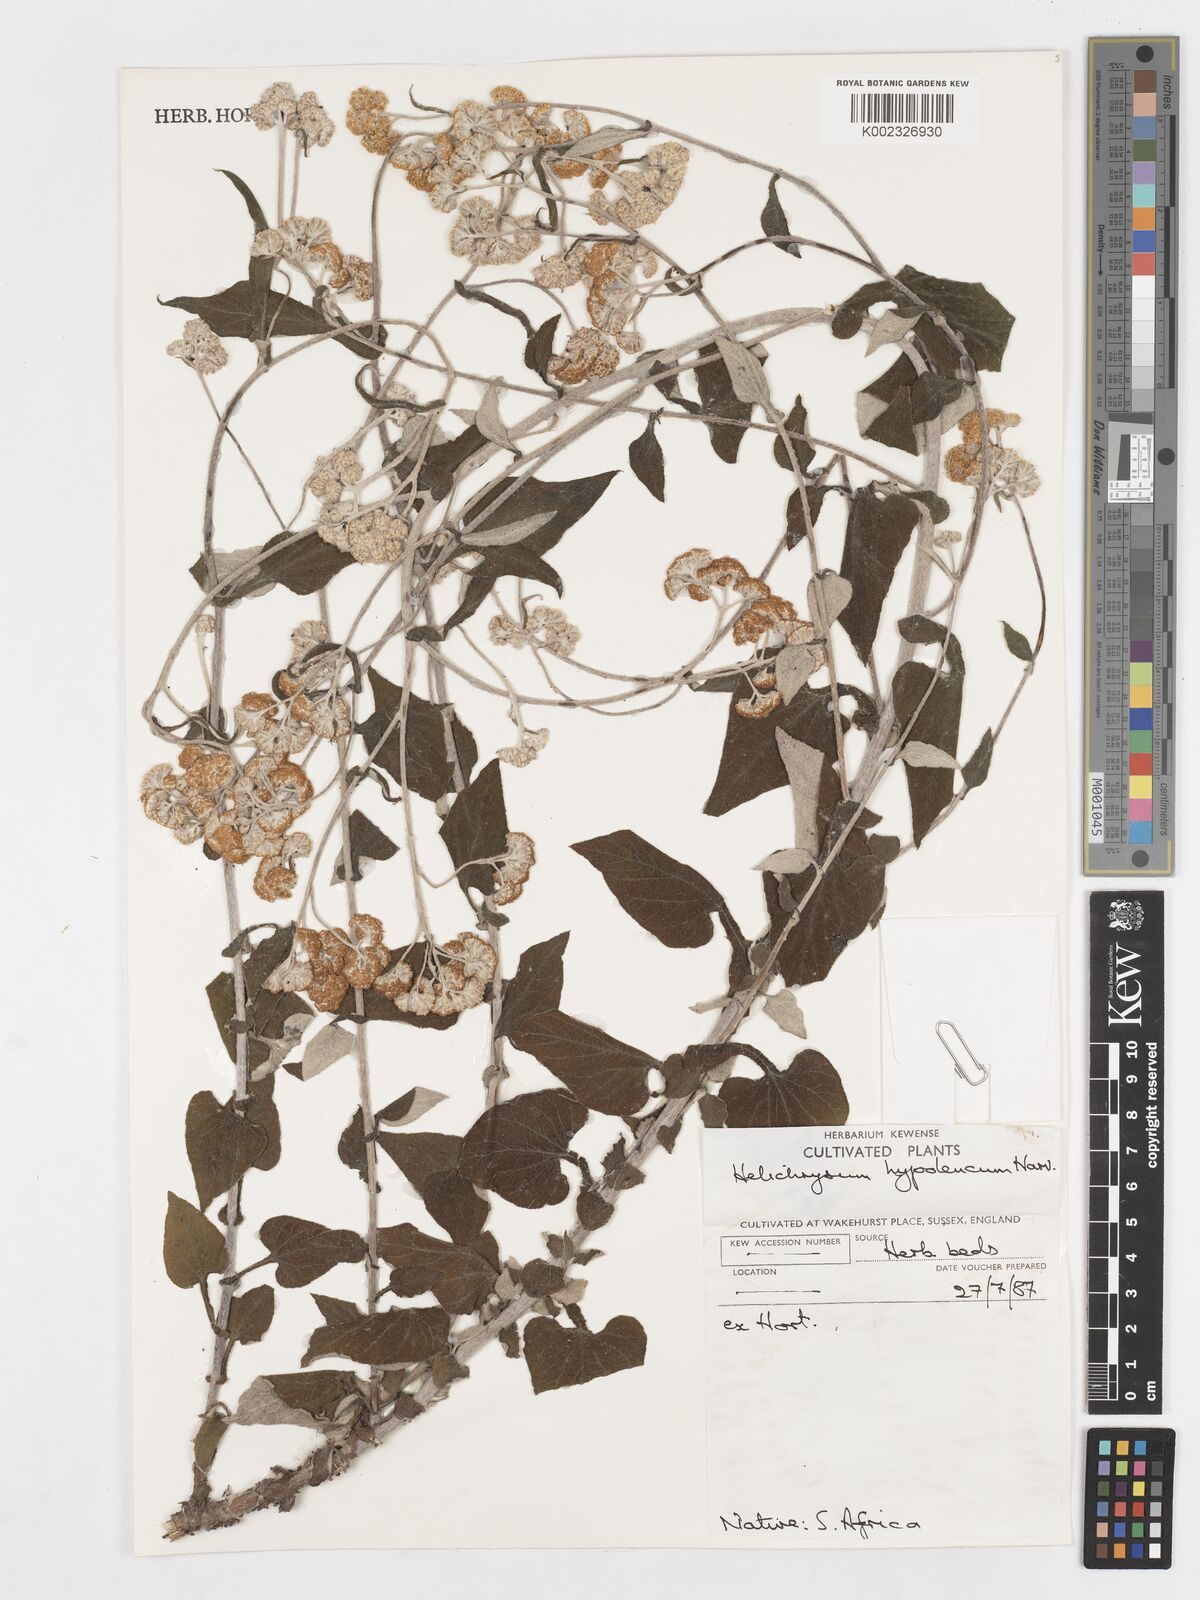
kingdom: Plantae
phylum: Tracheophyta
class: Magnoliopsida
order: Asterales
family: Asteraceae
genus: Helichrysum
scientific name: Helichrysum hypoleucum
